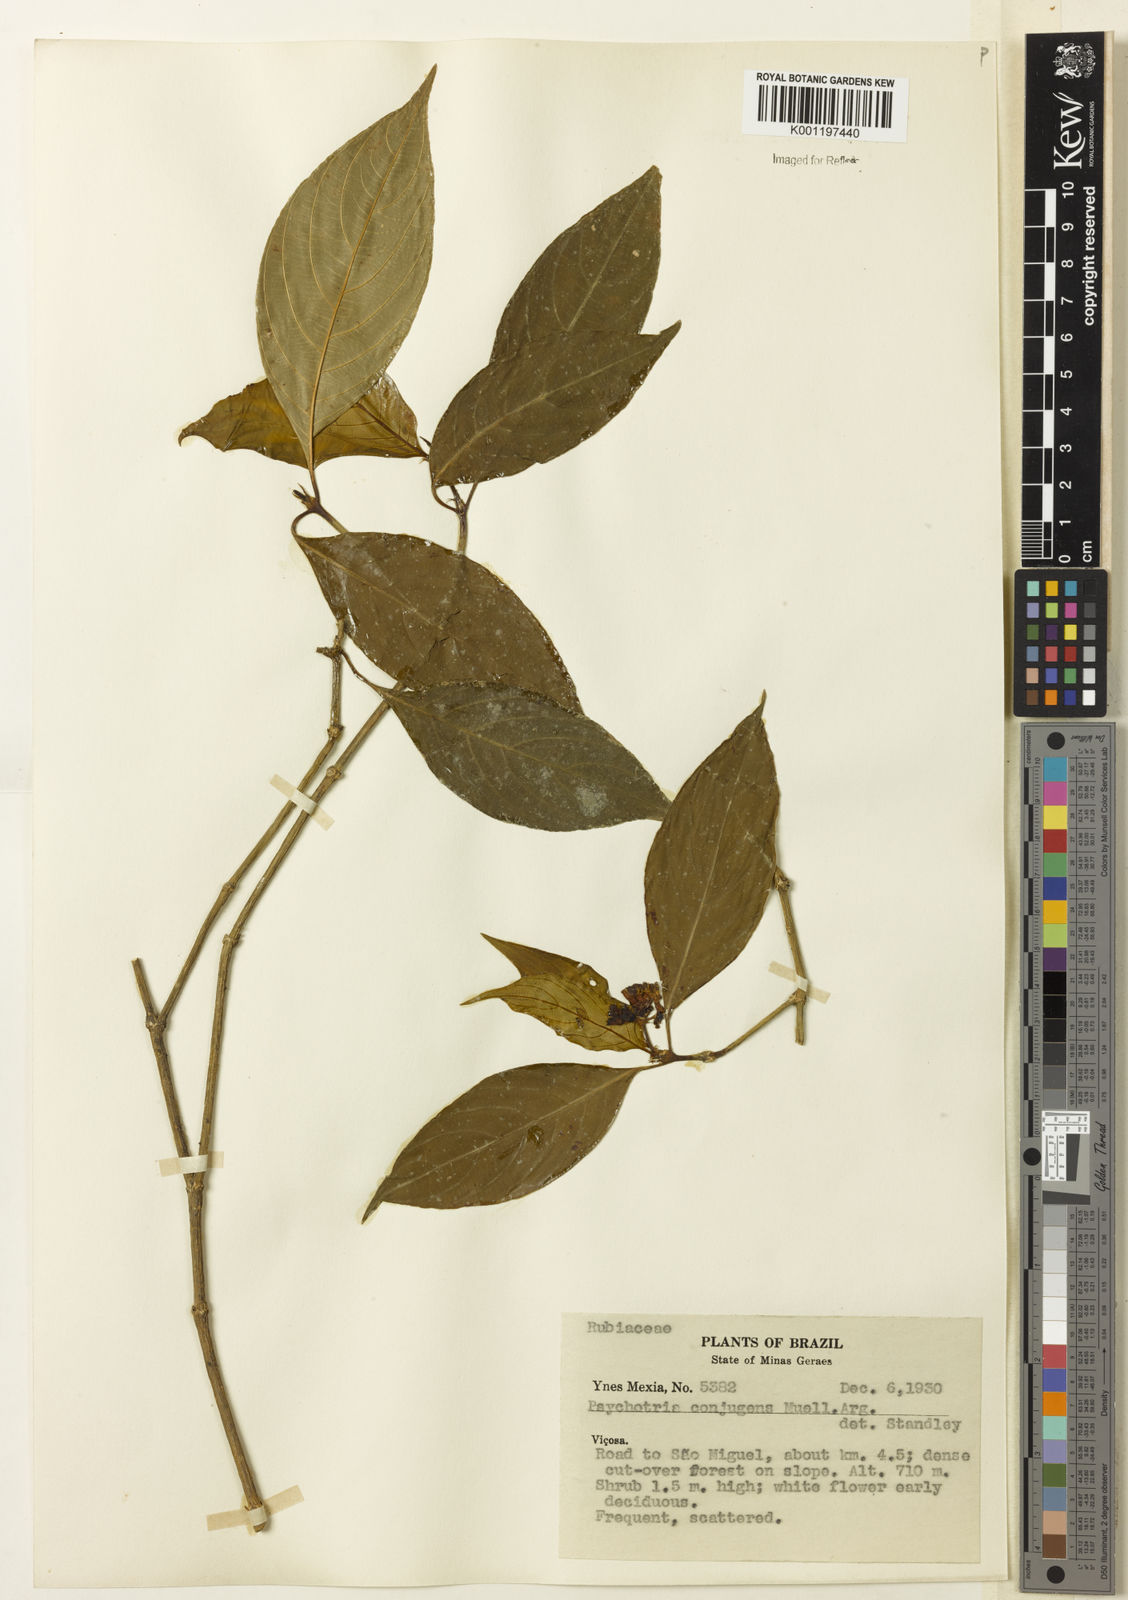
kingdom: Plantae
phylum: Tracheophyta
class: Magnoliopsida
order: Gentianales
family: Rubiaceae
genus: Psychotria
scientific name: Psychotria
